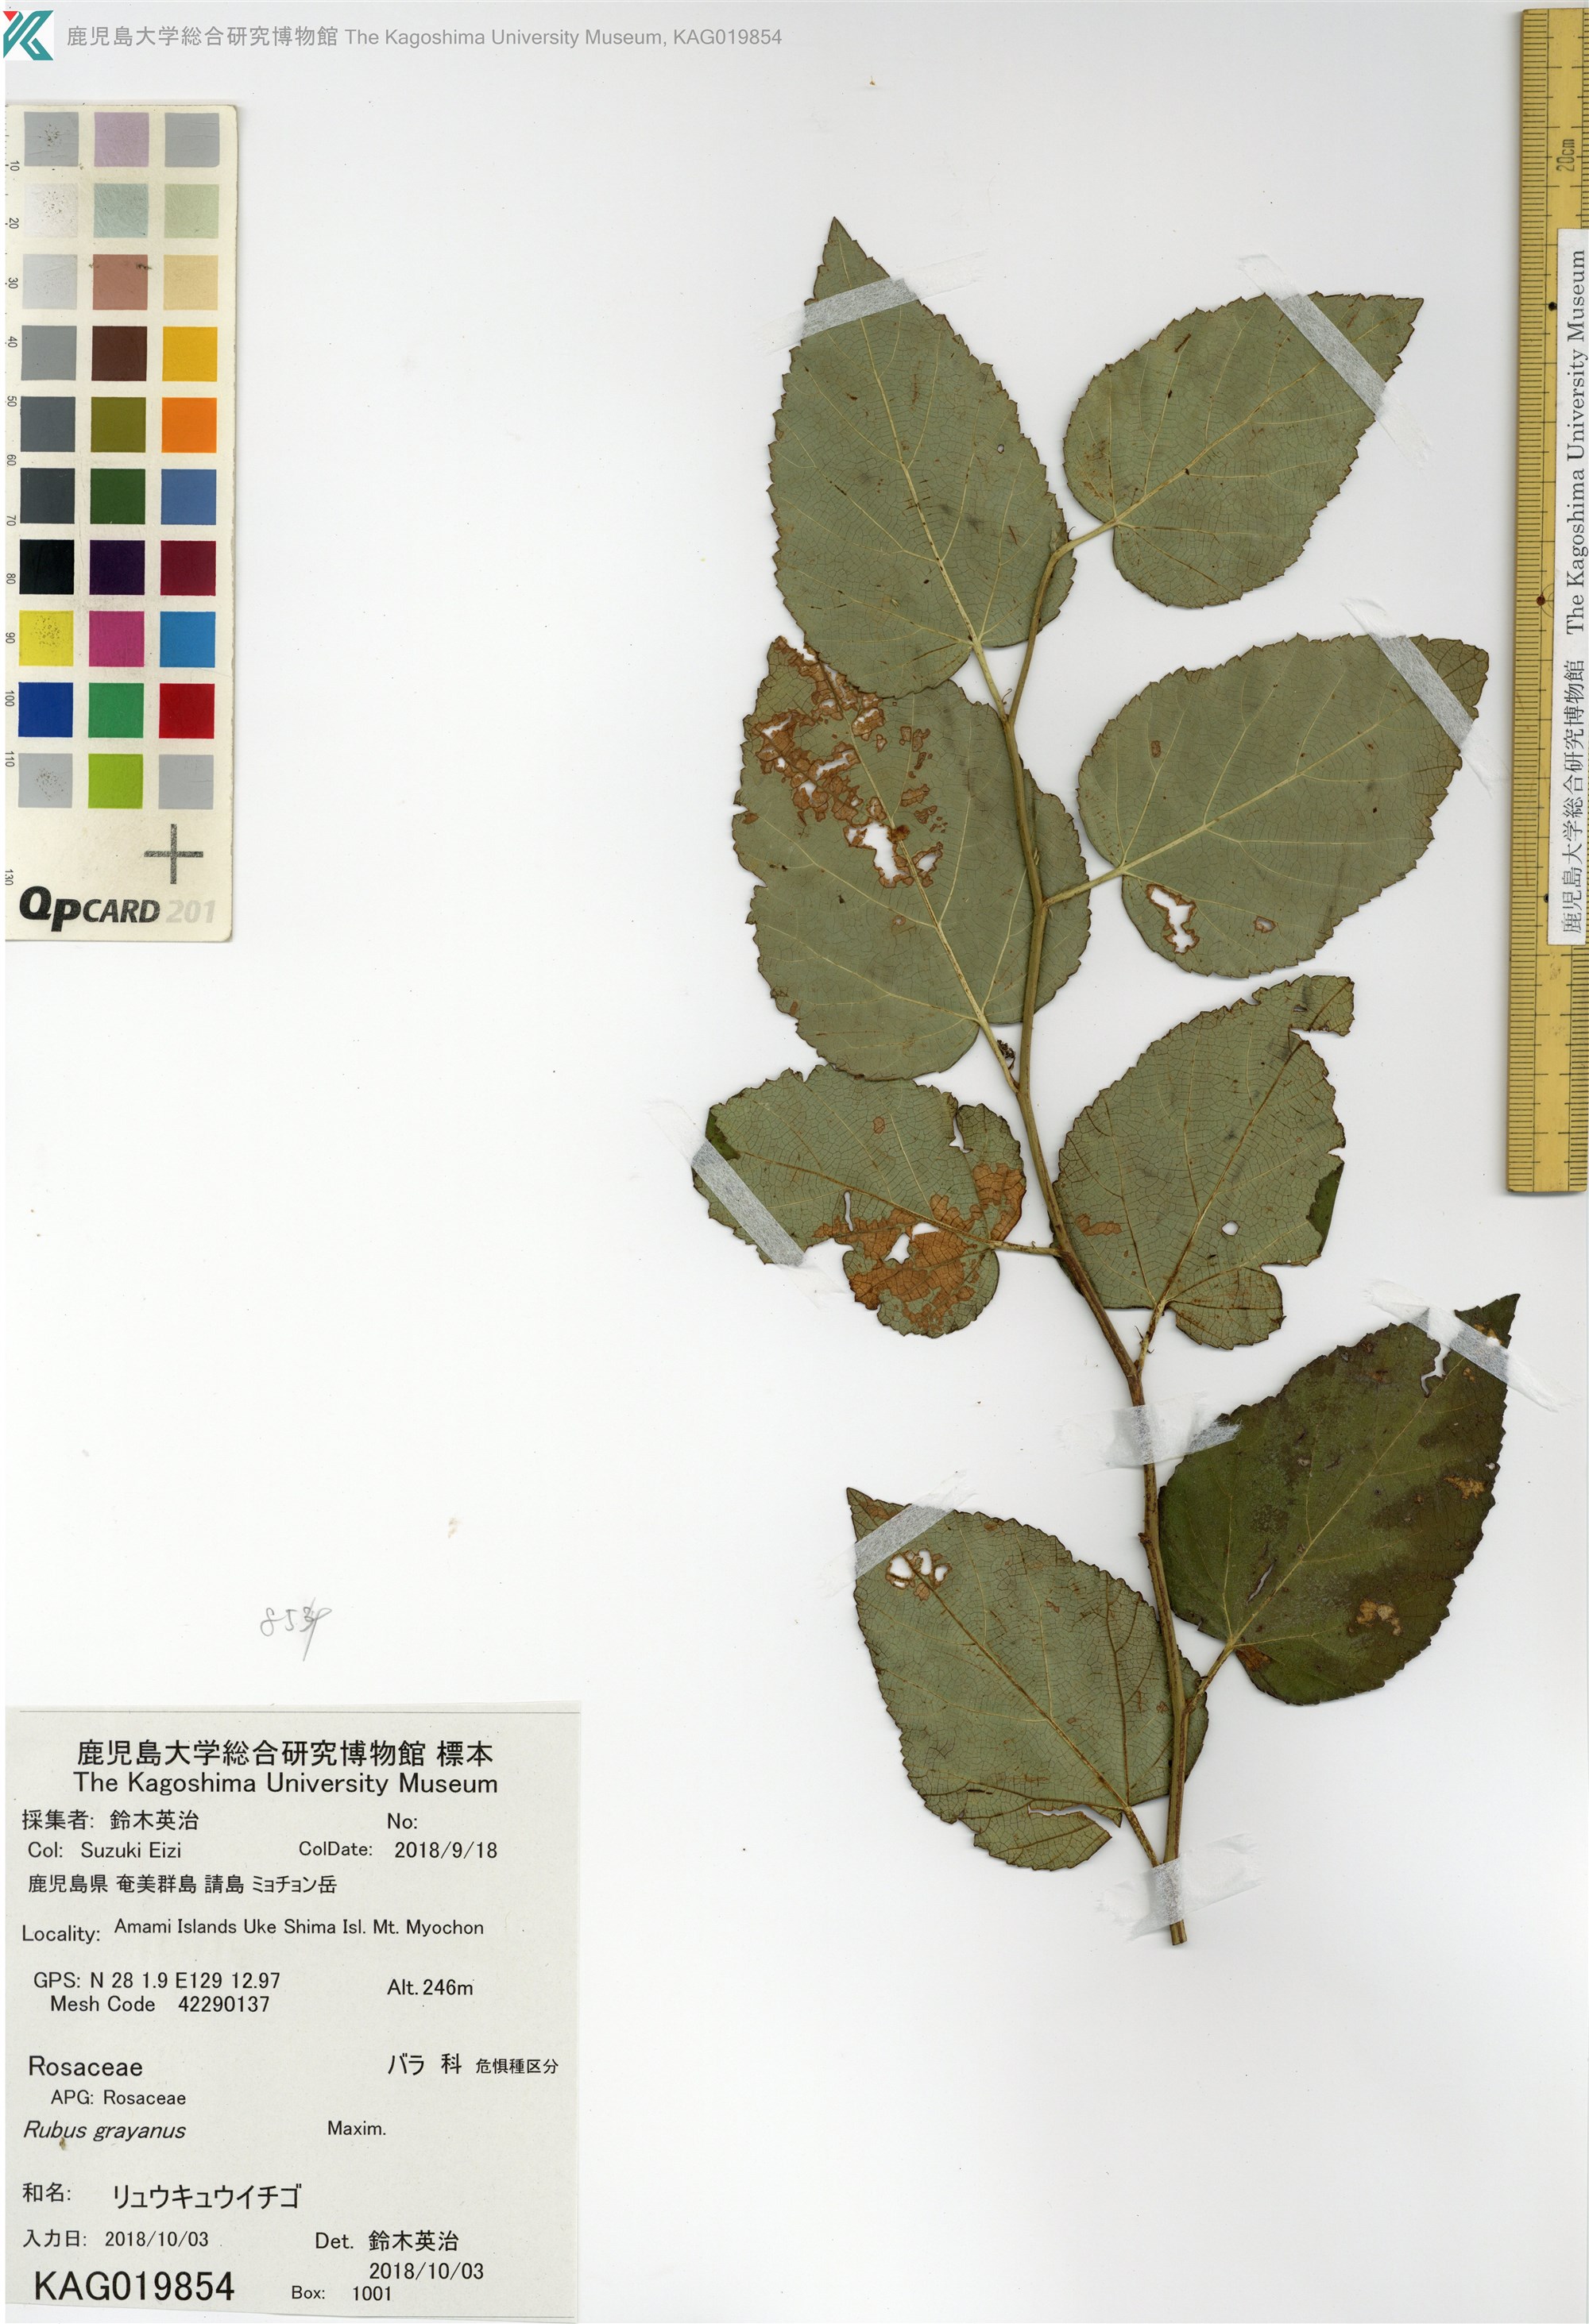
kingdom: Plantae
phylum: Tracheophyta
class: Magnoliopsida
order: Rosales
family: Rosaceae
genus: Rubus
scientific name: Rubus grayanus
